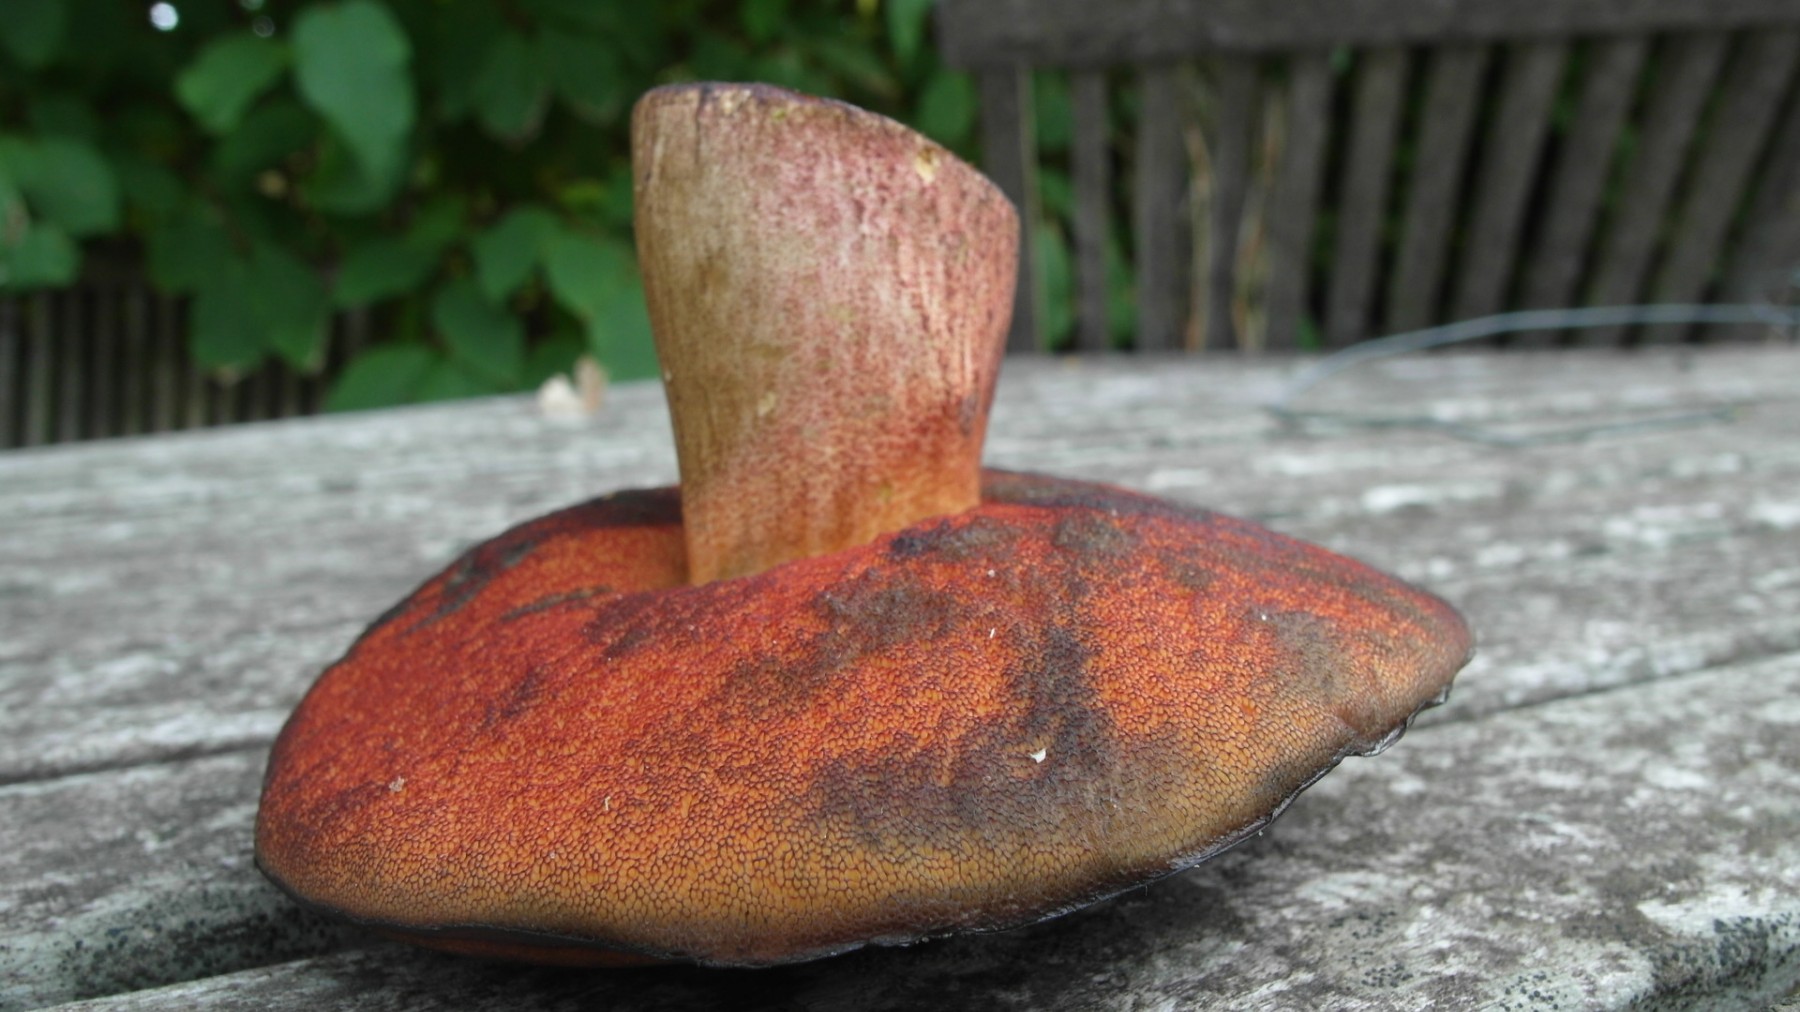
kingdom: Fungi
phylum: Basidiomycota
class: Agaricomycetes
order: Boletales
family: Boletaceae
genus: Neoboletus
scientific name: Neoboletus erythropus
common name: punktstokket indigorørhat
